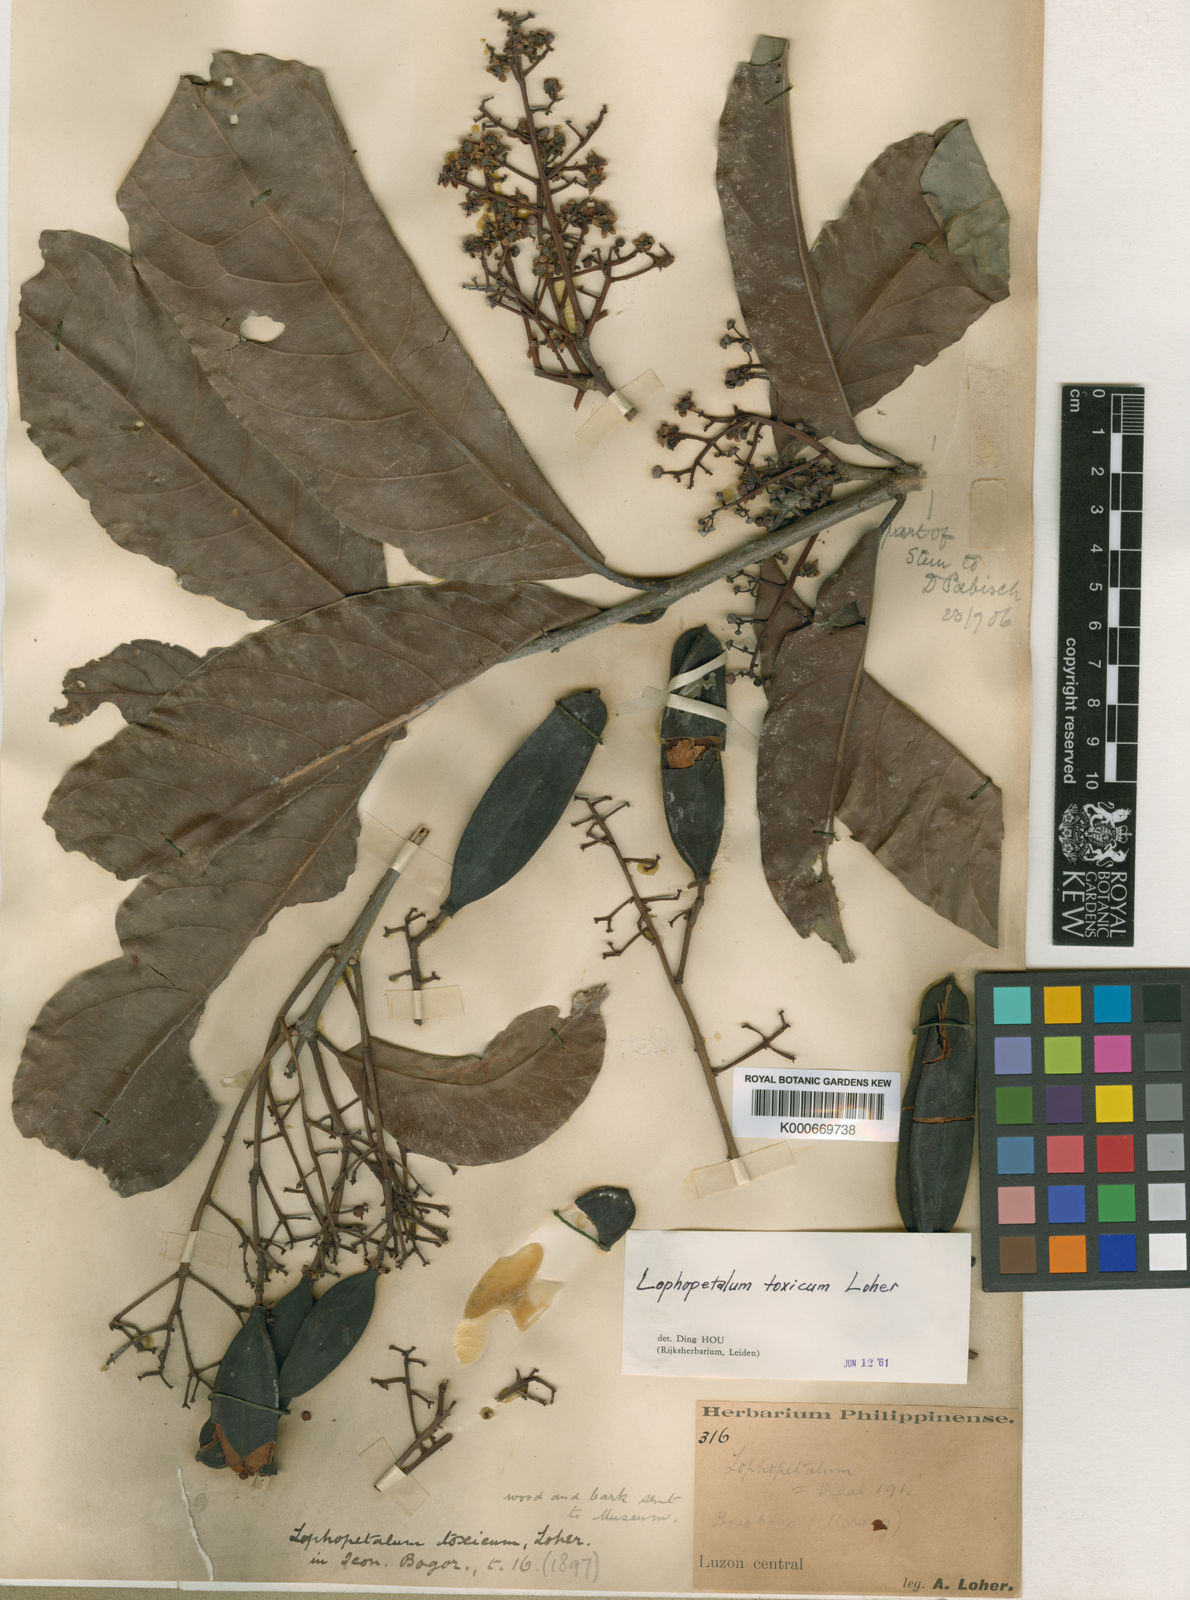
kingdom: Plantae
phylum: Tracheophyta
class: Magnoliopsida
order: Celastrales
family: Celastraceae
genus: Lophopetalum
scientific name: Lophopetalum
